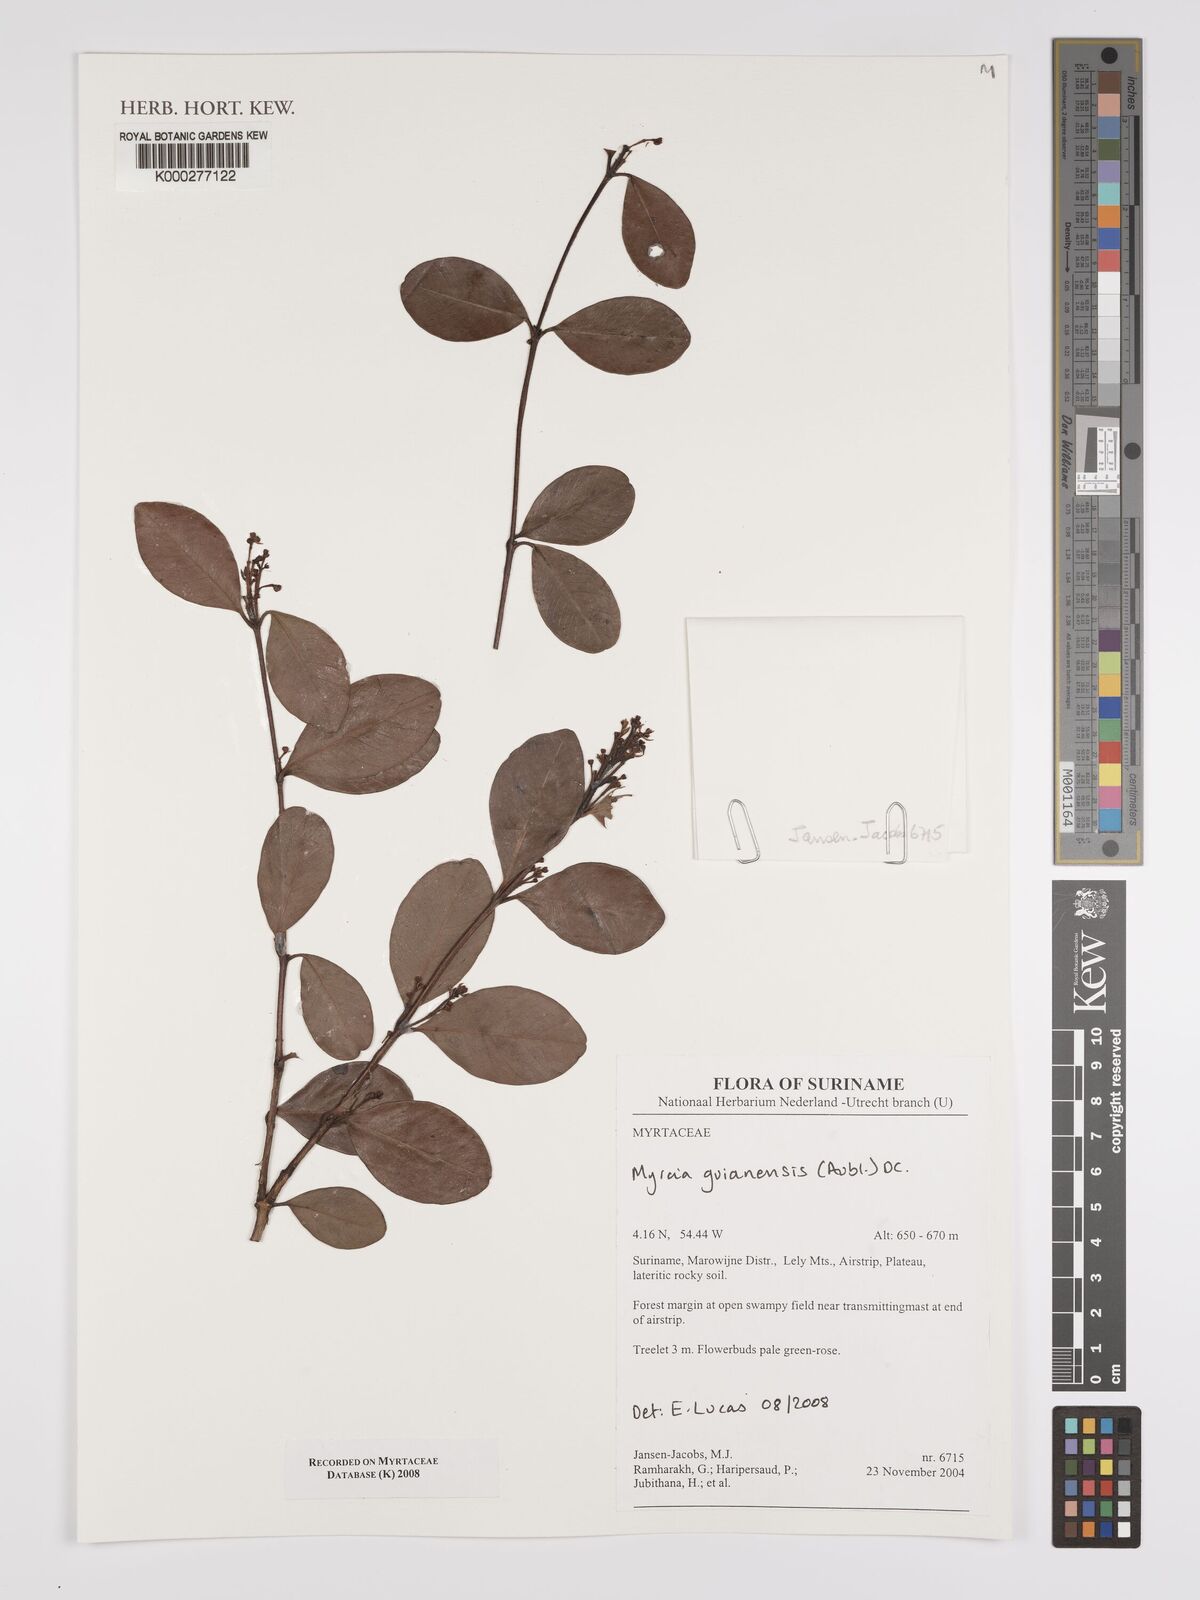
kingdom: Plantae
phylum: Tracheophyta
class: Magnoliopsida
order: Myrtales
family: Myrtaceae
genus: Myrcia
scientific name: Myrcia guianensis
